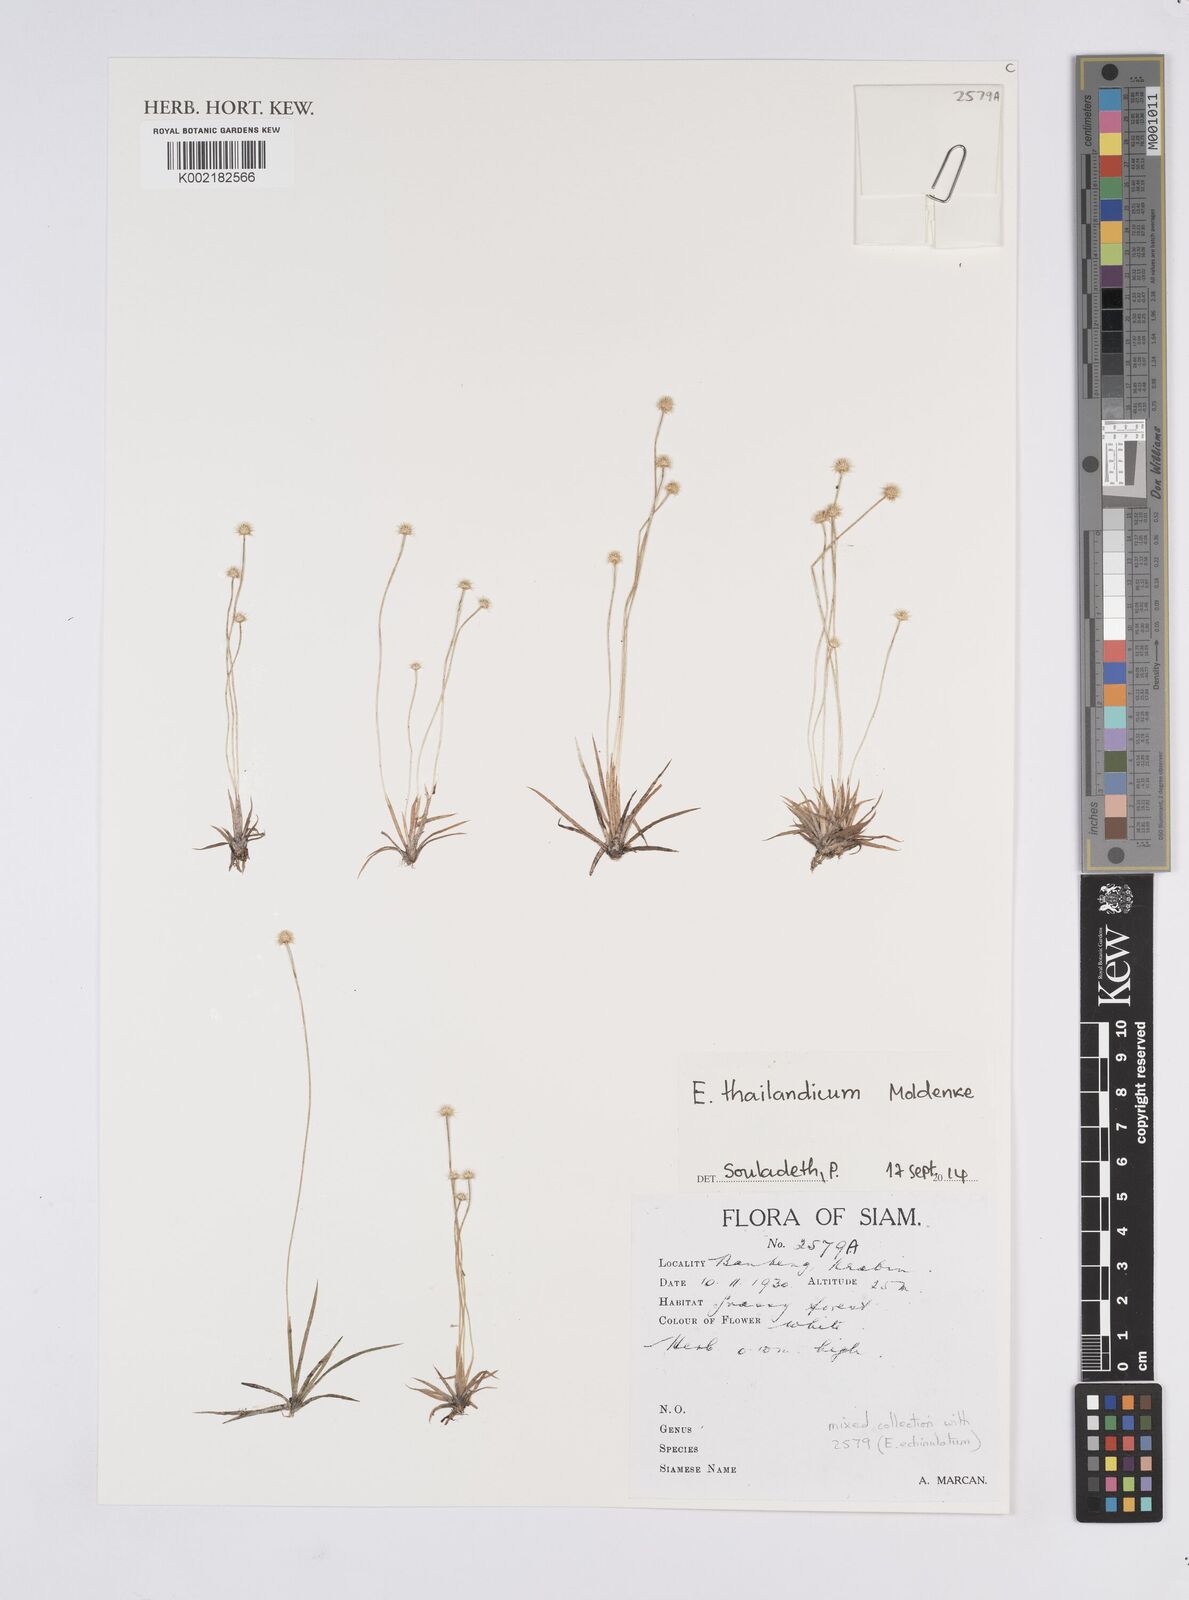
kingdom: Plantae
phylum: Tracheophyta
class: Liliopsida
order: Poales
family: Eriocaulaceae
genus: Eriocaulon
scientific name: Eriocaulon thailandicum
